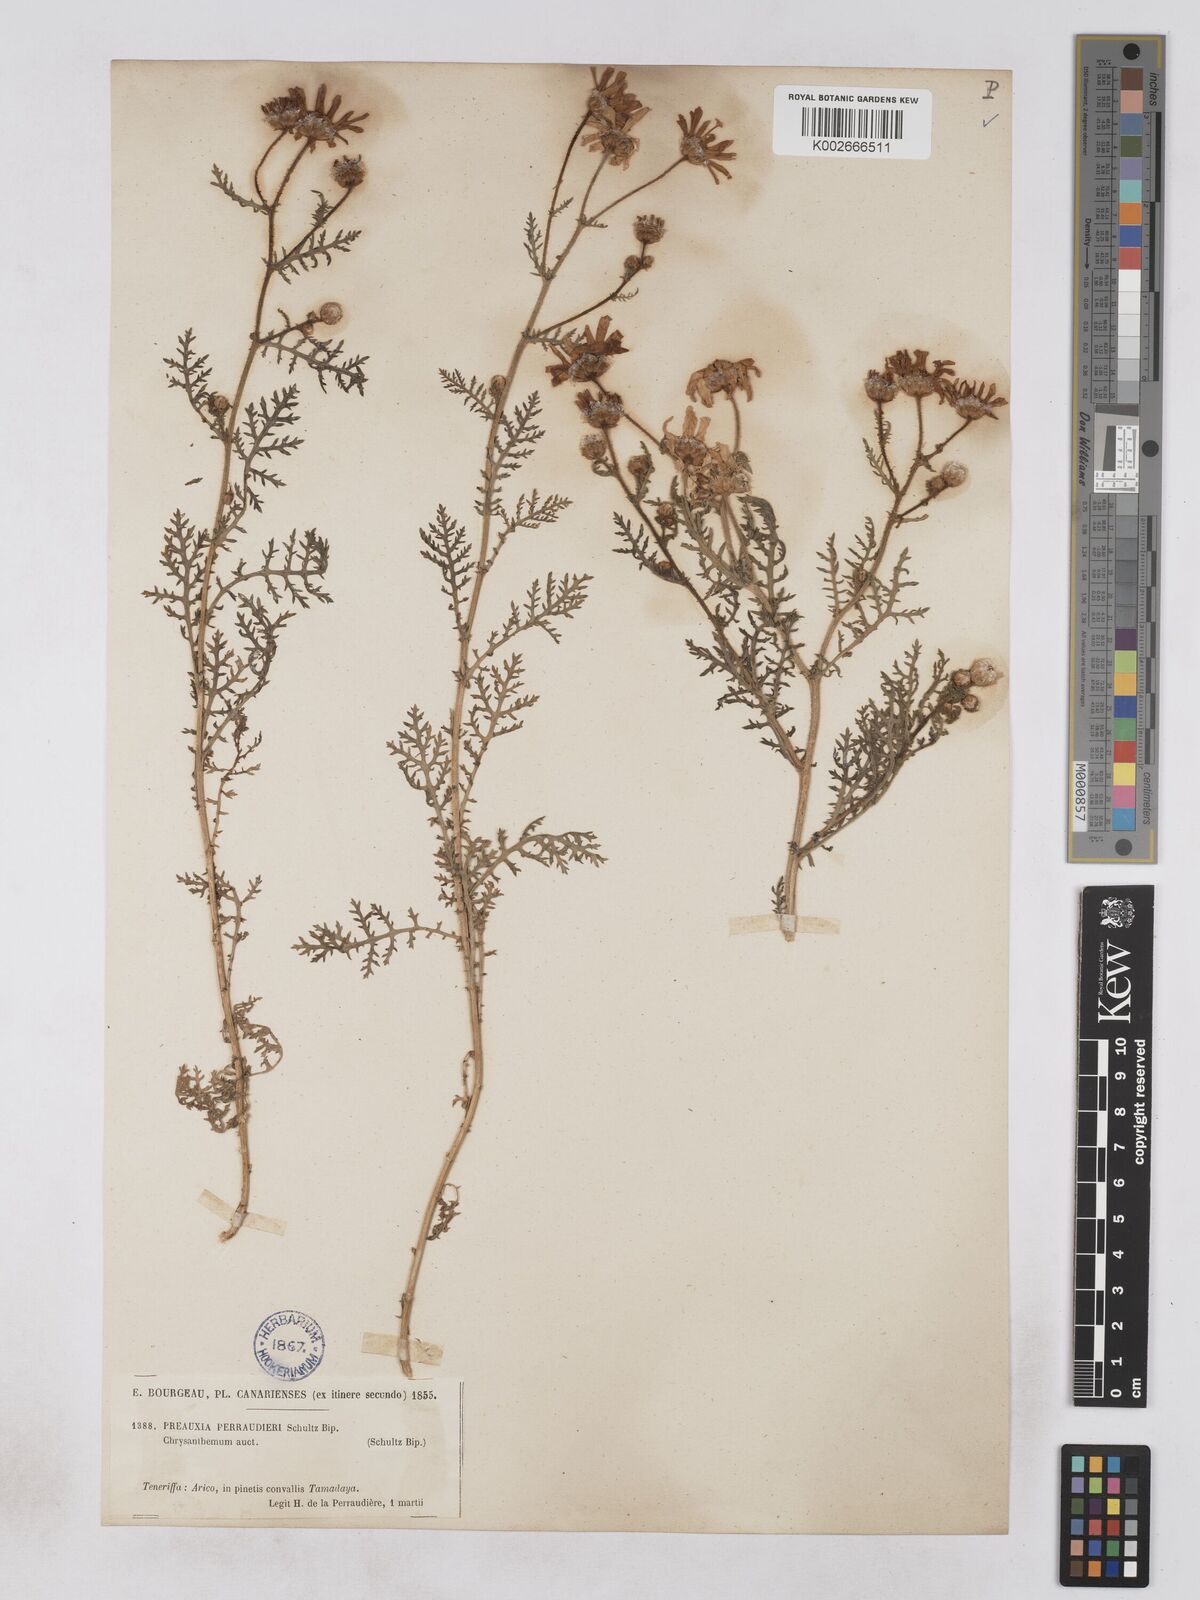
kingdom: Plantae
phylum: Tracheophyta
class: Magnoliopsida
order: Asterales
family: Asteraceae
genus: Argyranthemum
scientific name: Argyranthemum adauctum
